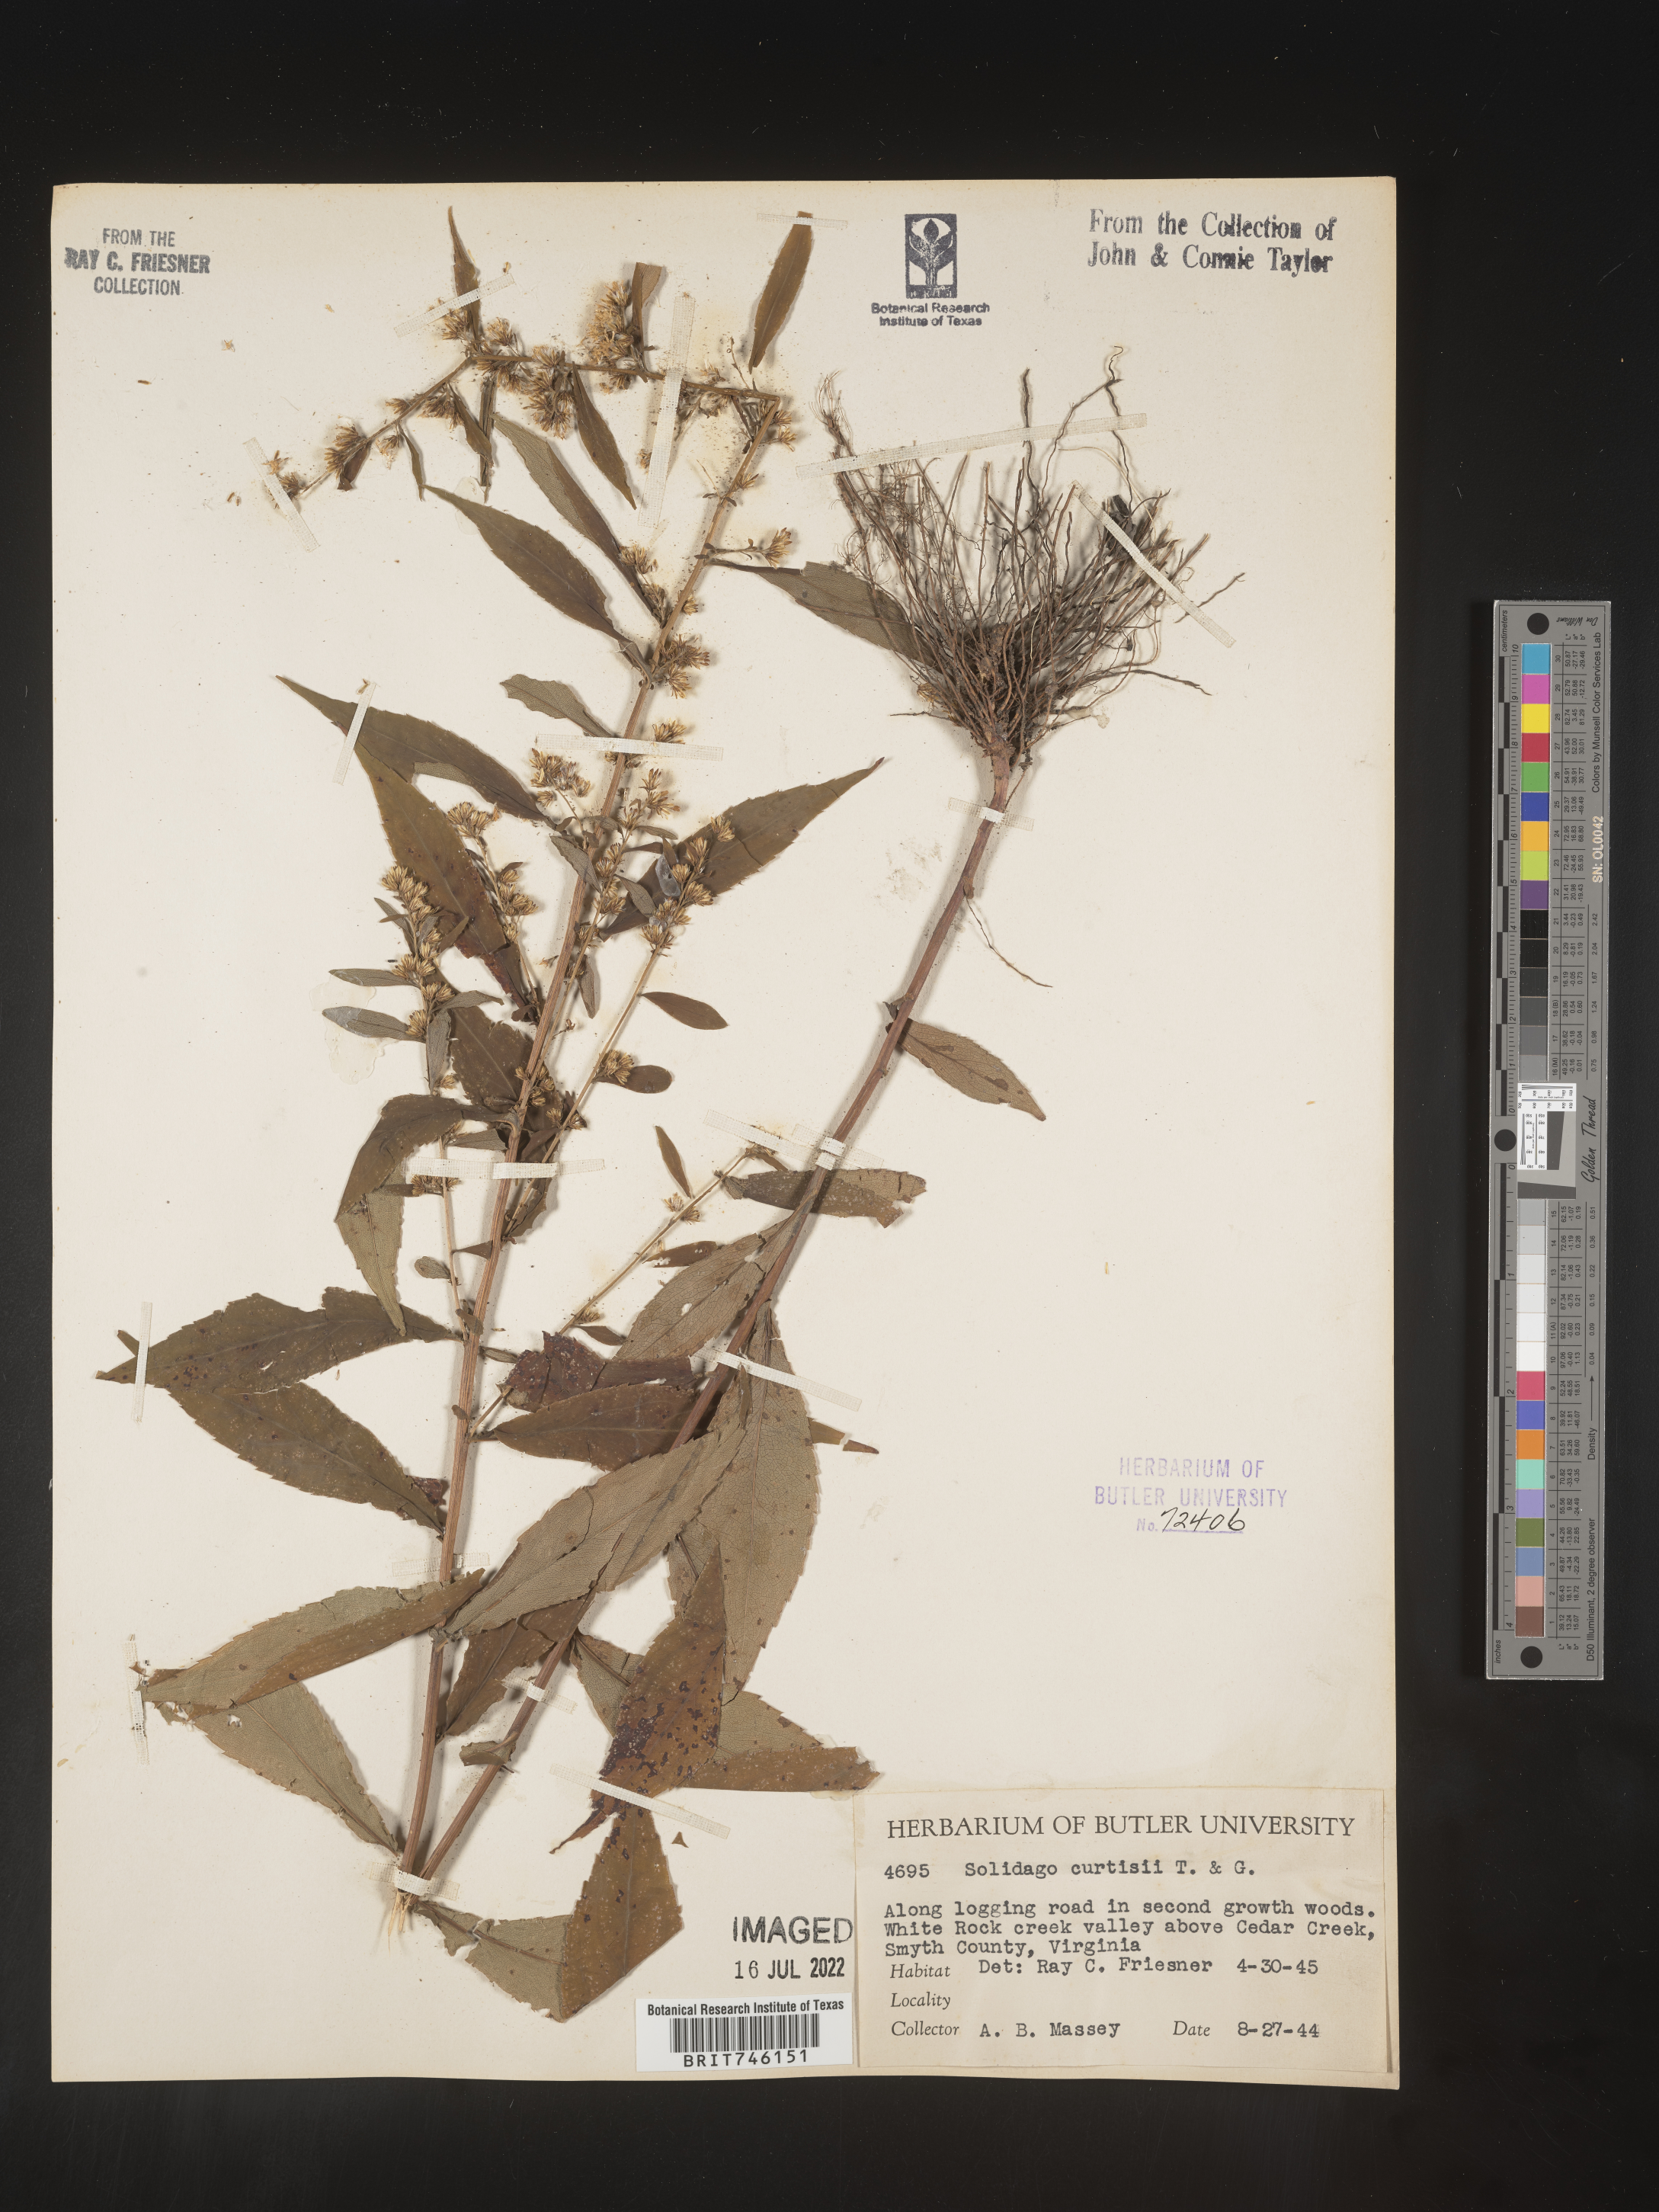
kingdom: Plantae
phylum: Tracheophyta
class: Magnoliopsida
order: Asterales
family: Asteraceae
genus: Solidago
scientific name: Solidago curtisii
